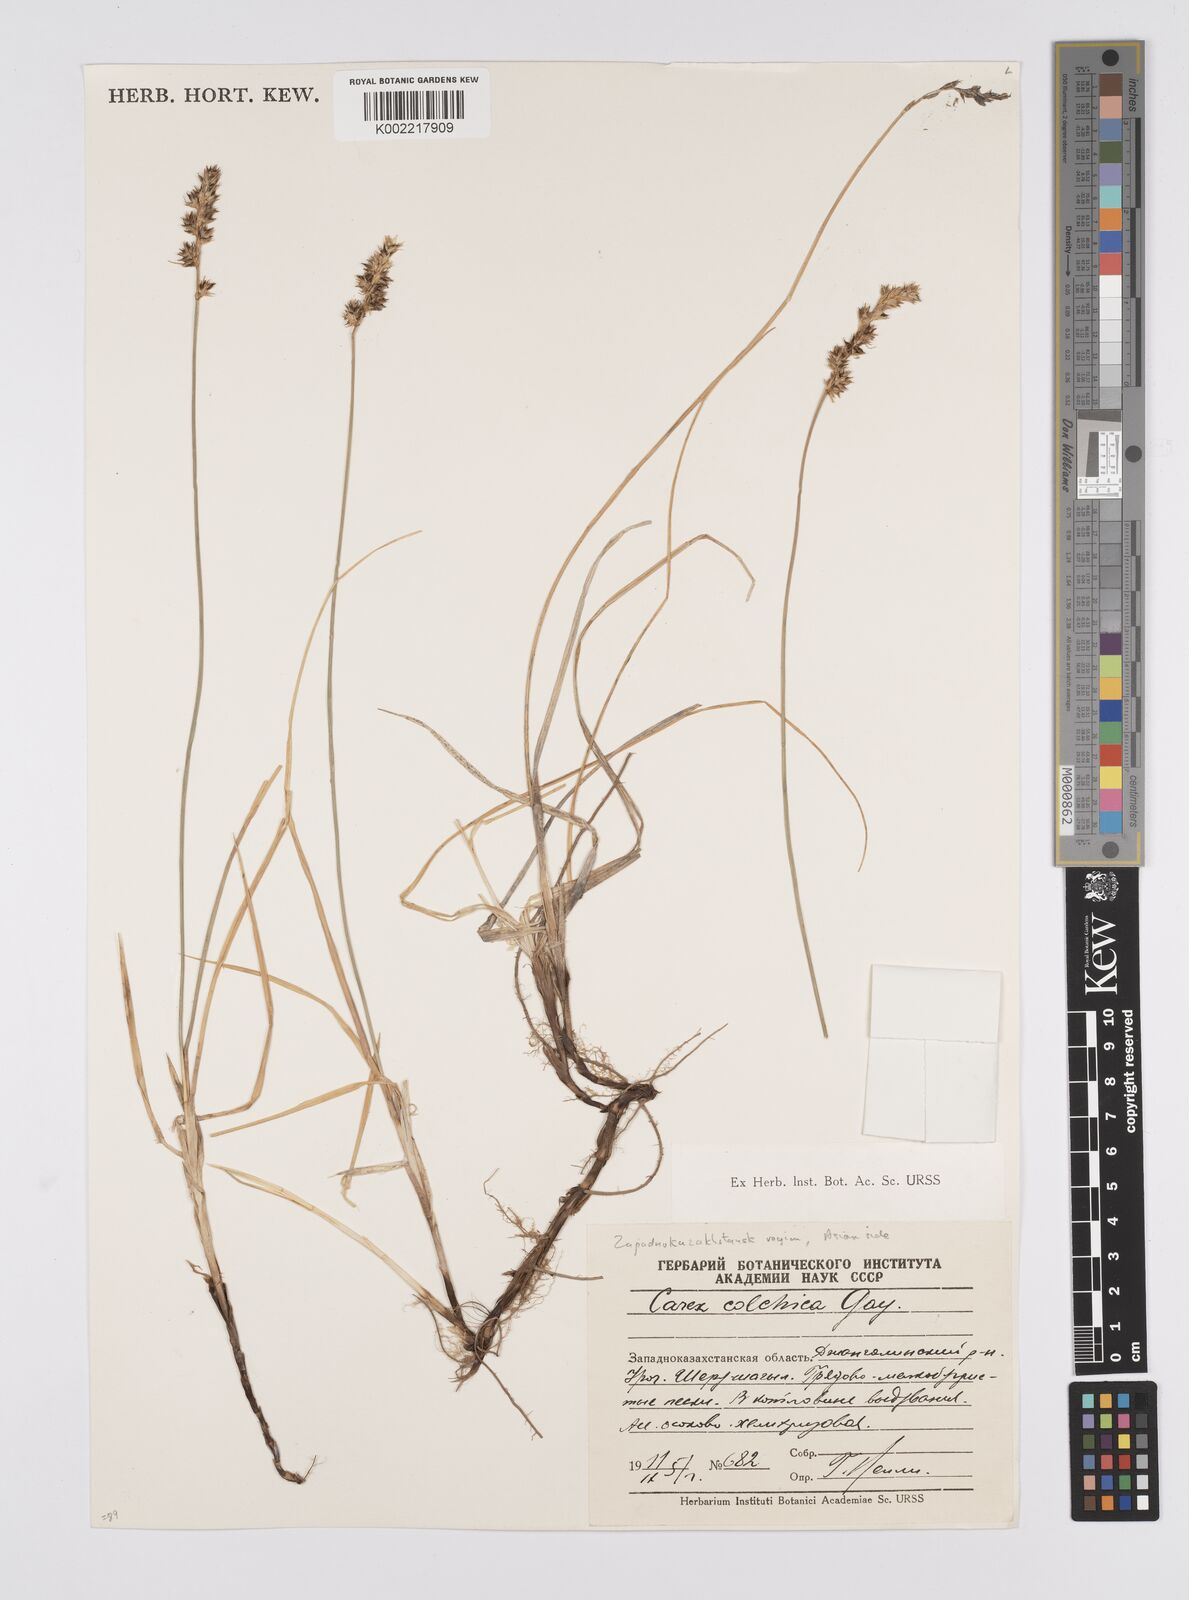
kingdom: Plantae
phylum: Tracheophyta
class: Liliopsida
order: Poales
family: Cyperaceae
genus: Carex
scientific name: Carex colchica
